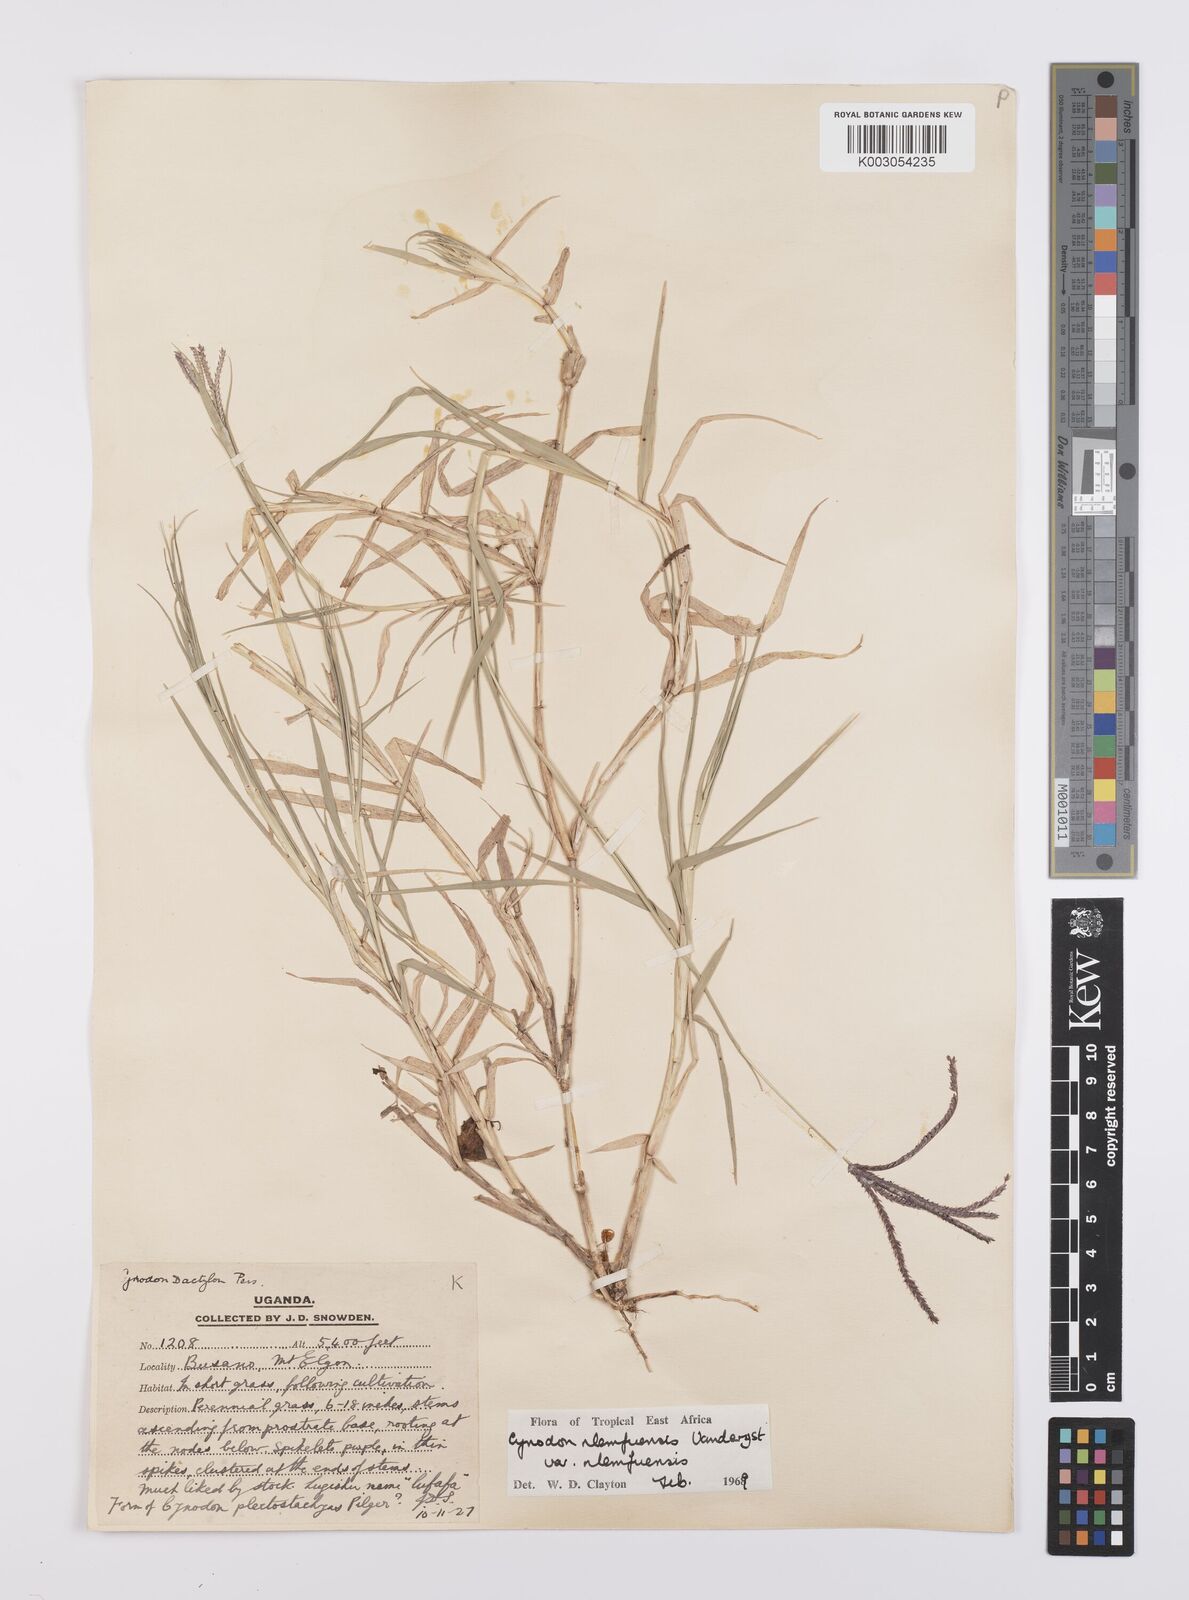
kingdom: Plantae
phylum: Tracheophyta
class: Liliopsida
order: Poales
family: Poaceae
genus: Cynodon
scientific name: Cynodon nlemfuensis
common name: African bermudagrass
